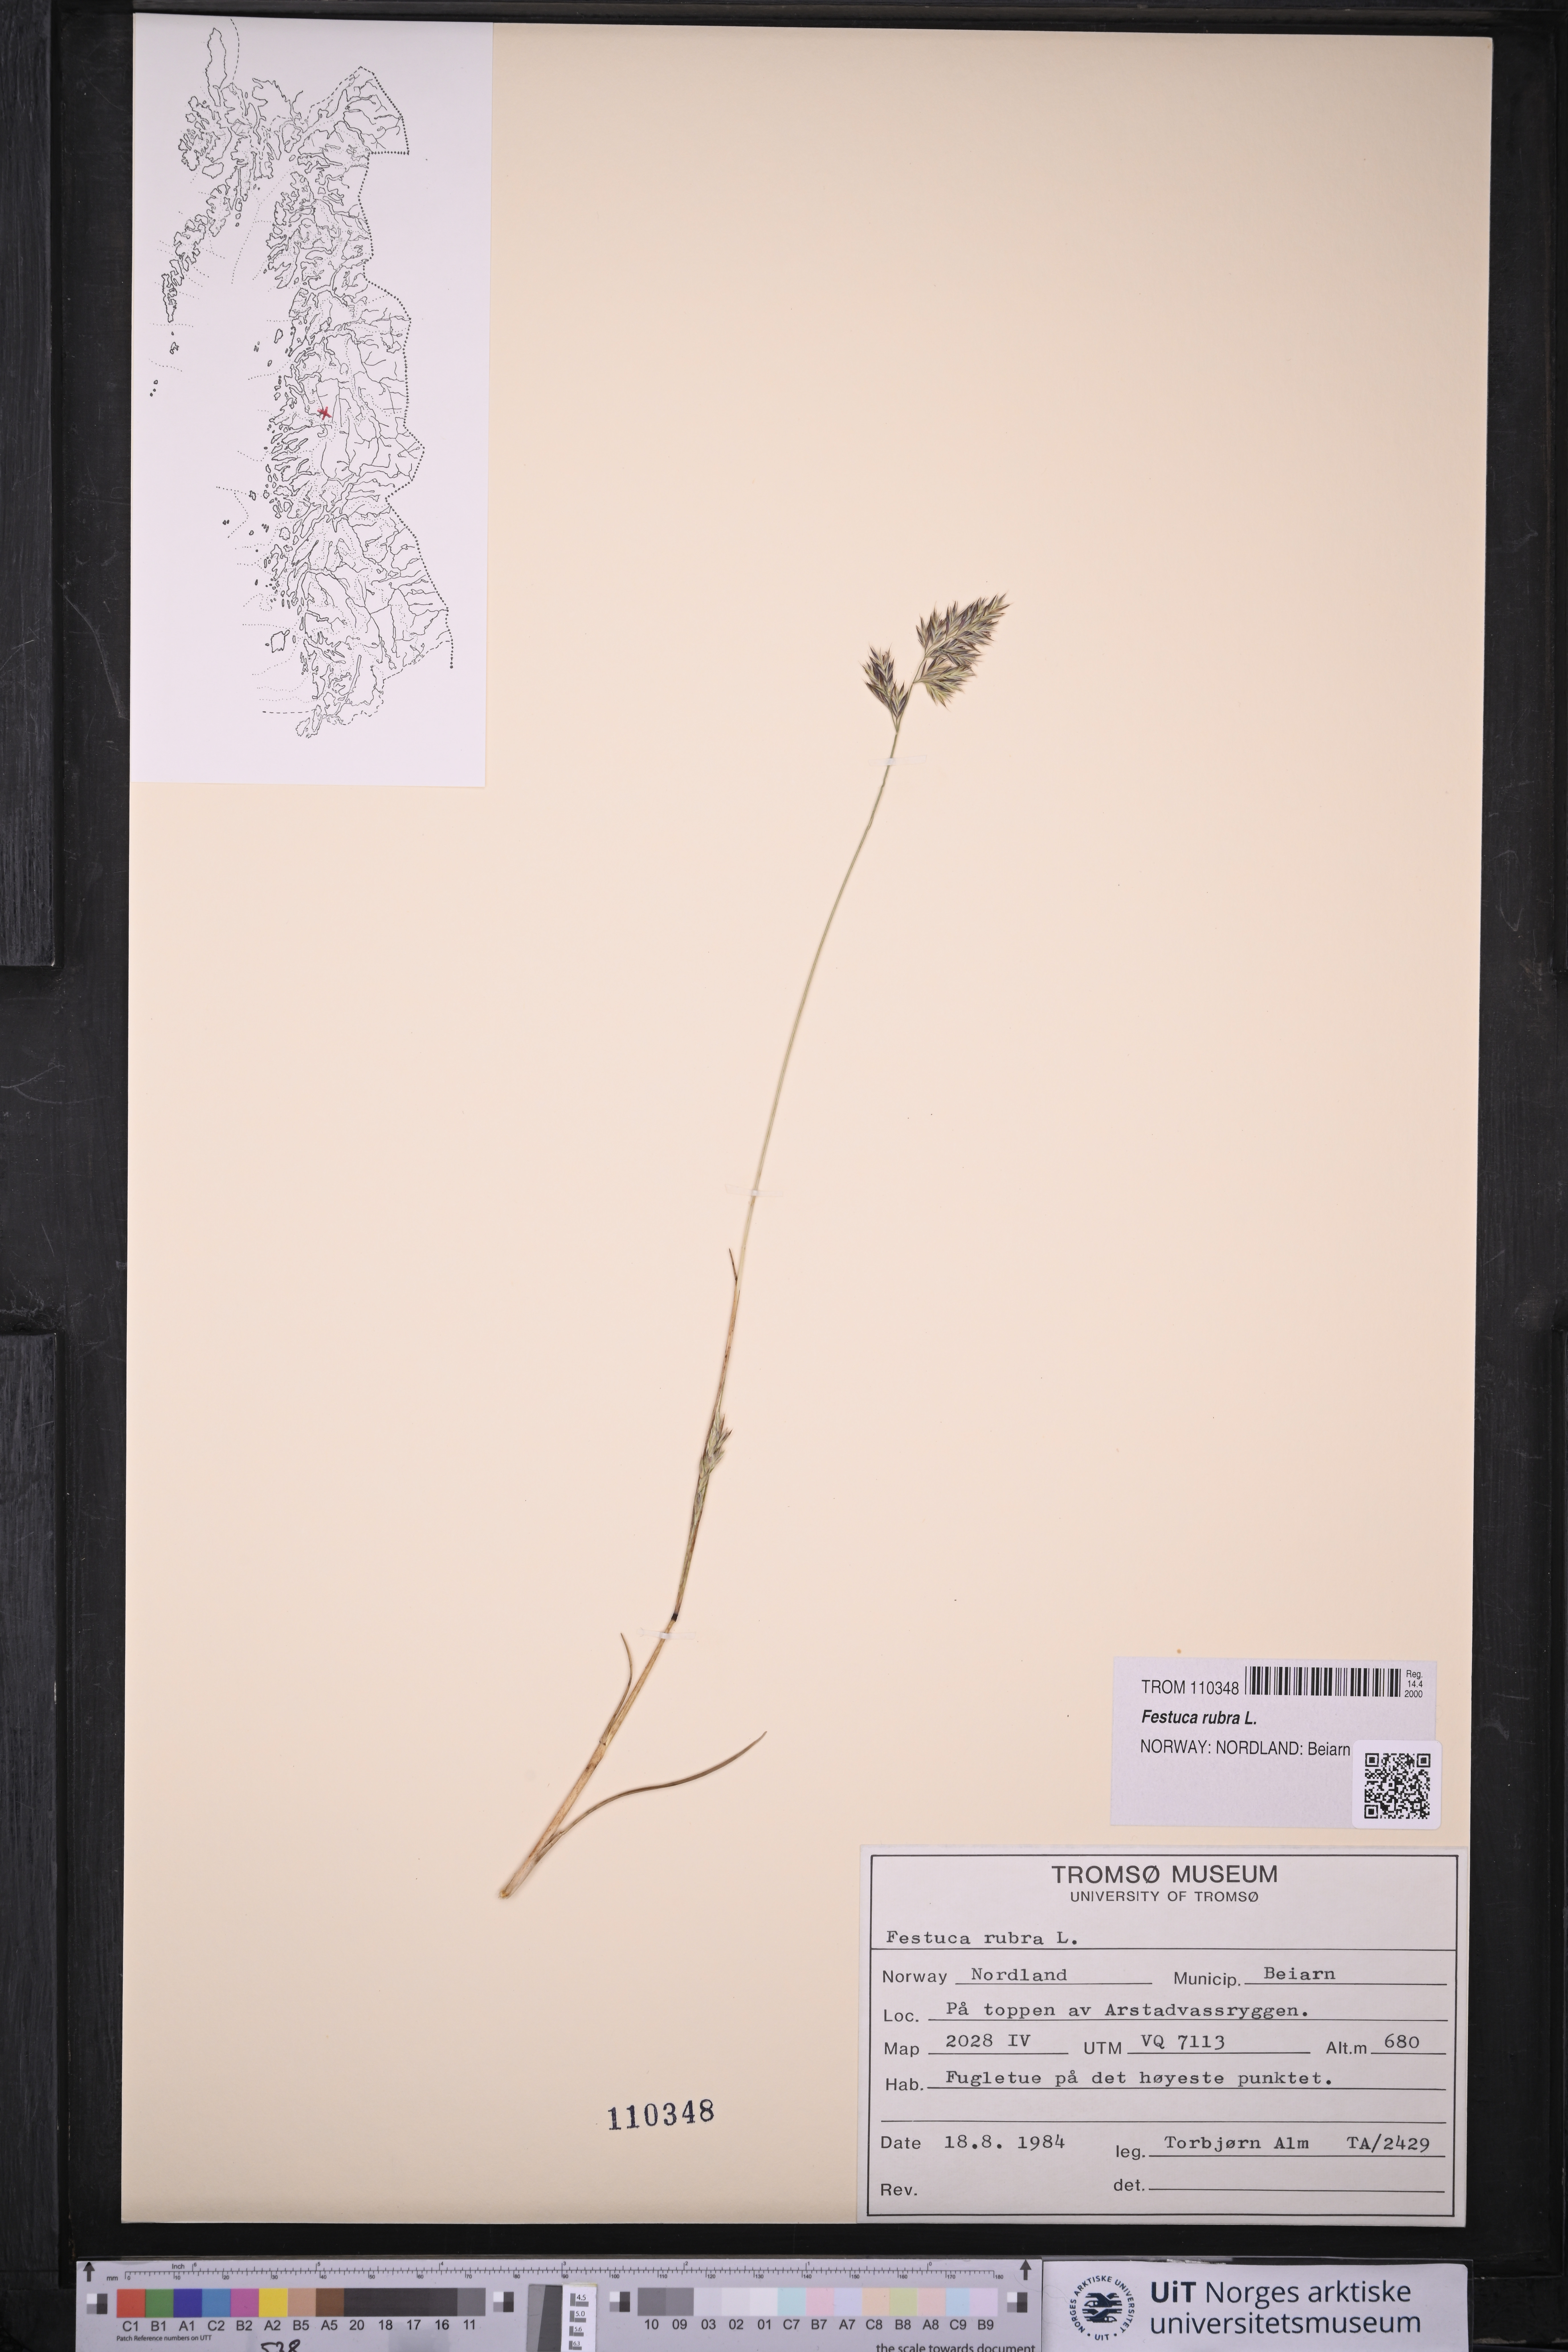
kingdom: Plantae
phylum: Tracheophyta
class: Liliopsida
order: Poales
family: Poaceae
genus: Festuca
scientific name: Festuca rubra
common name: Red fescue
